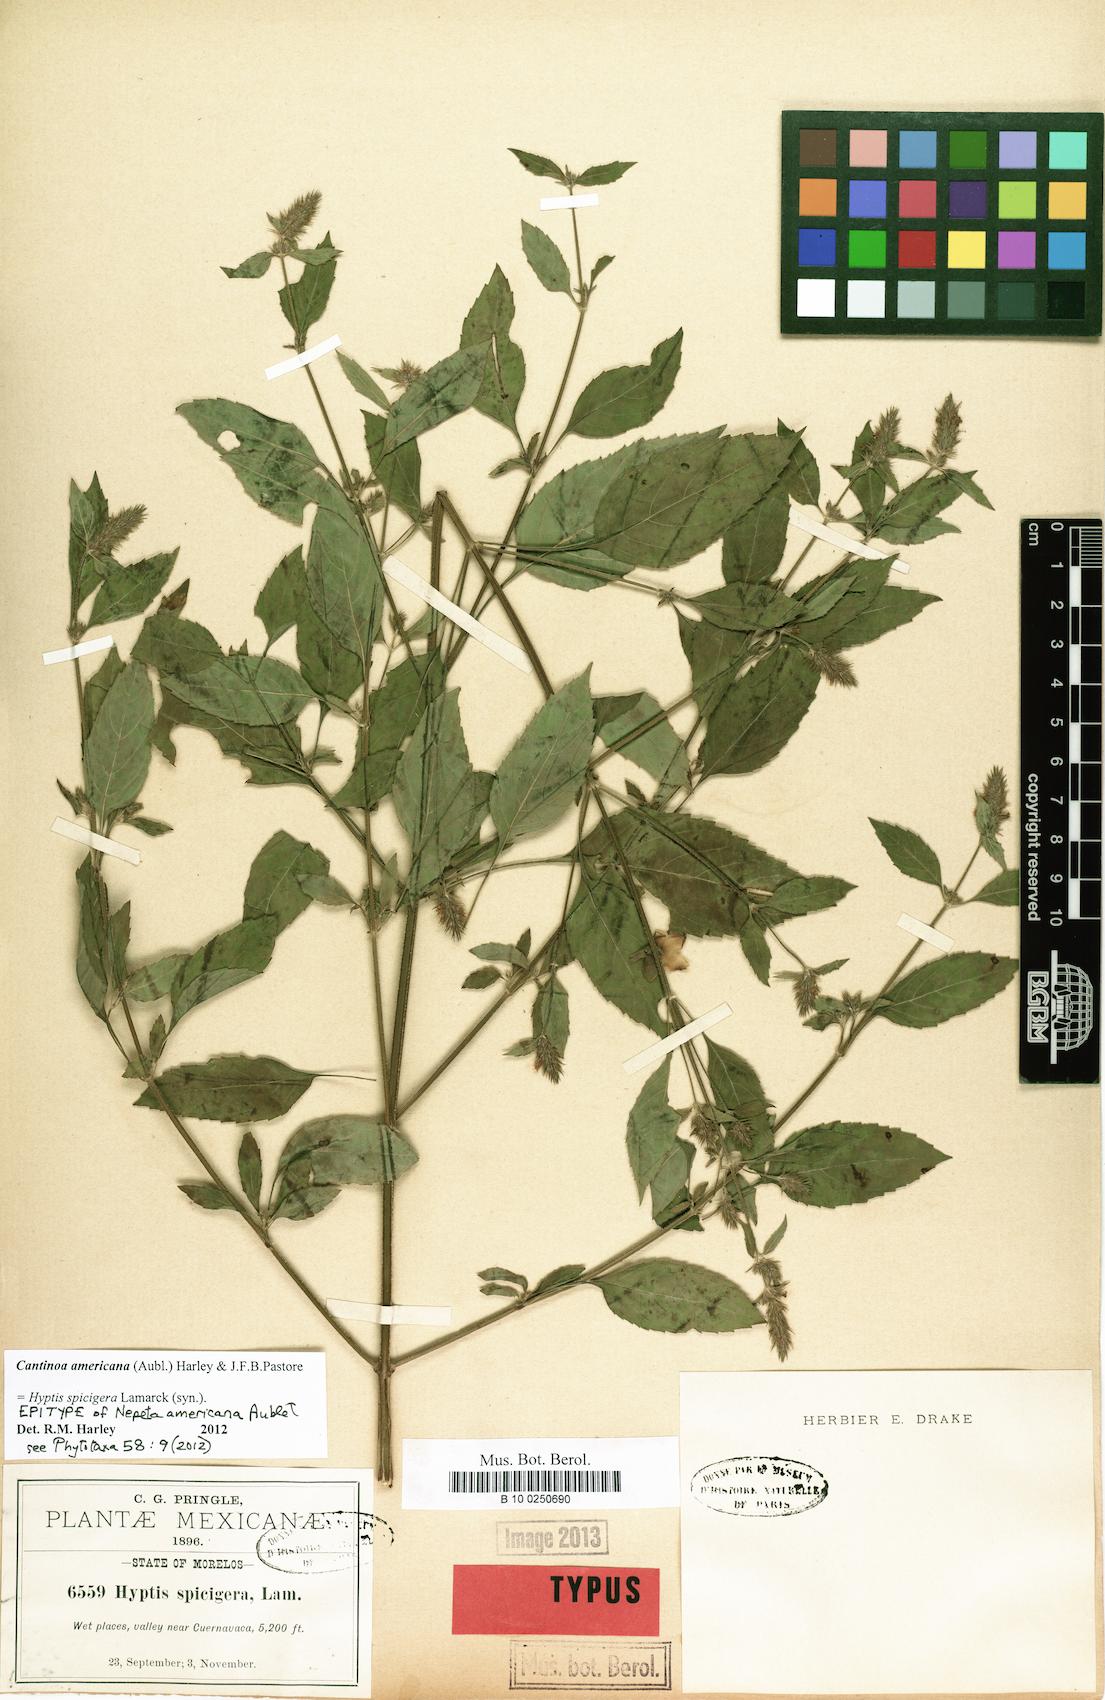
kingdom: Plantae
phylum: Tracheophyta
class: Magnoliopsida
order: Lamiales
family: Lamiaceae
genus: Cantinoa
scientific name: Cantinoa americana
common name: Black-sesame
